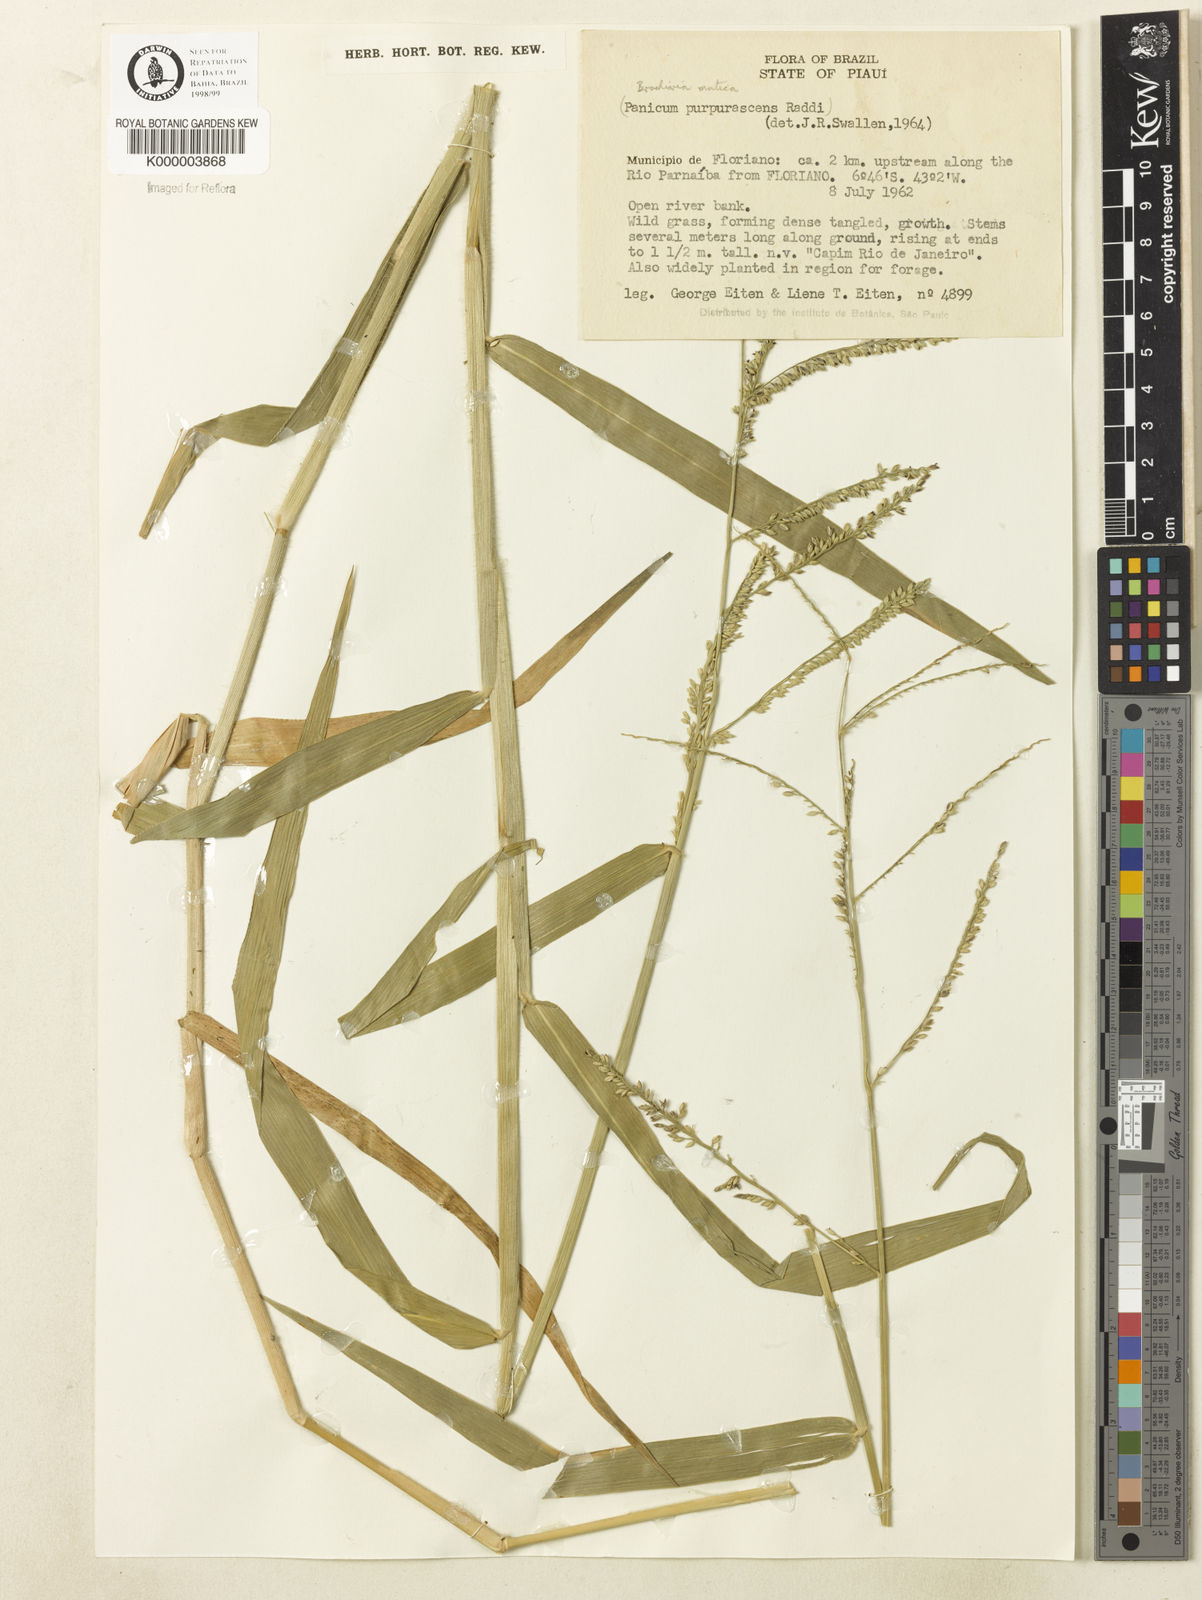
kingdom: Plantae
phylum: Tracheophyta
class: Liliopsida
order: Poales
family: Poaceae
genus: Urochloa
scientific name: Urochloa mutica
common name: Para grass
